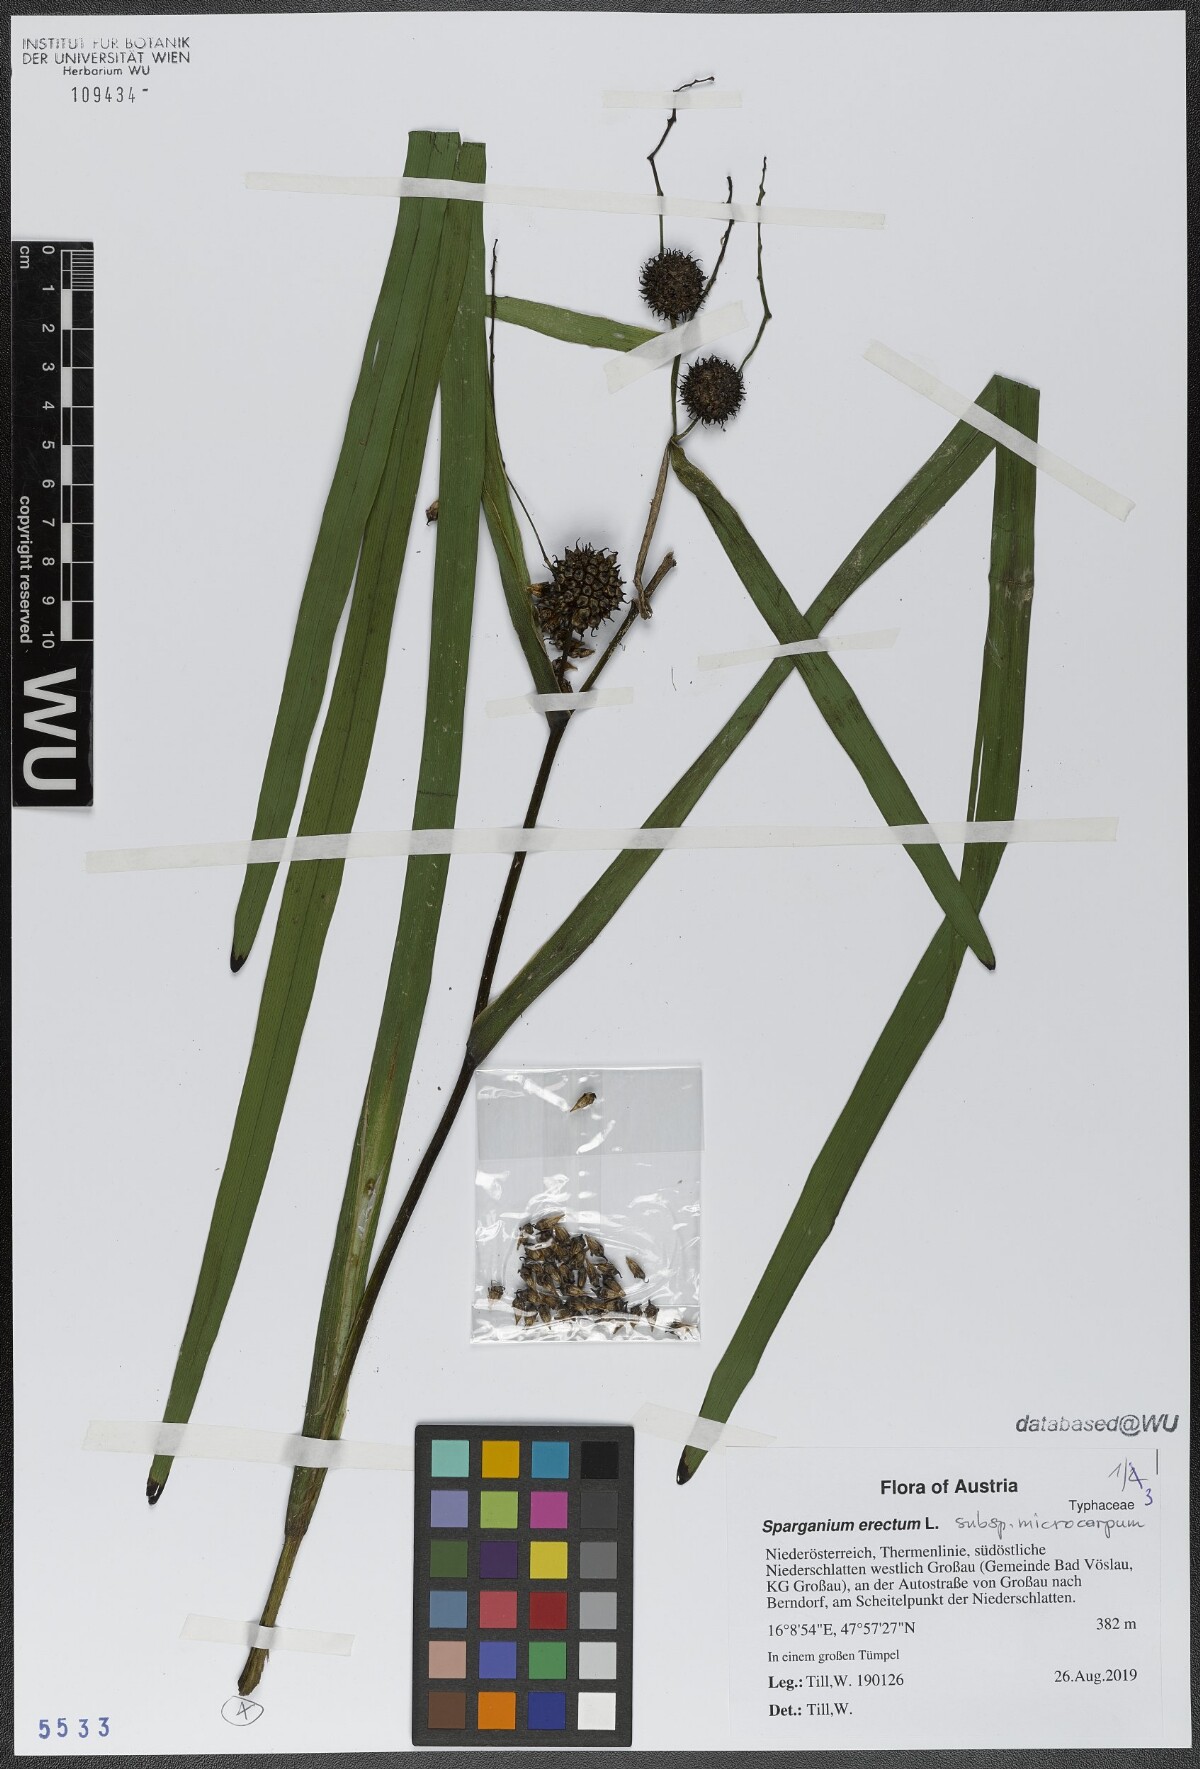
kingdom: Plantae
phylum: Tracheophyta
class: Liliopsida
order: Poales
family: Typhaceae
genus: Sparganium
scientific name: Sparganium erectum
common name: Branched bur-reed
